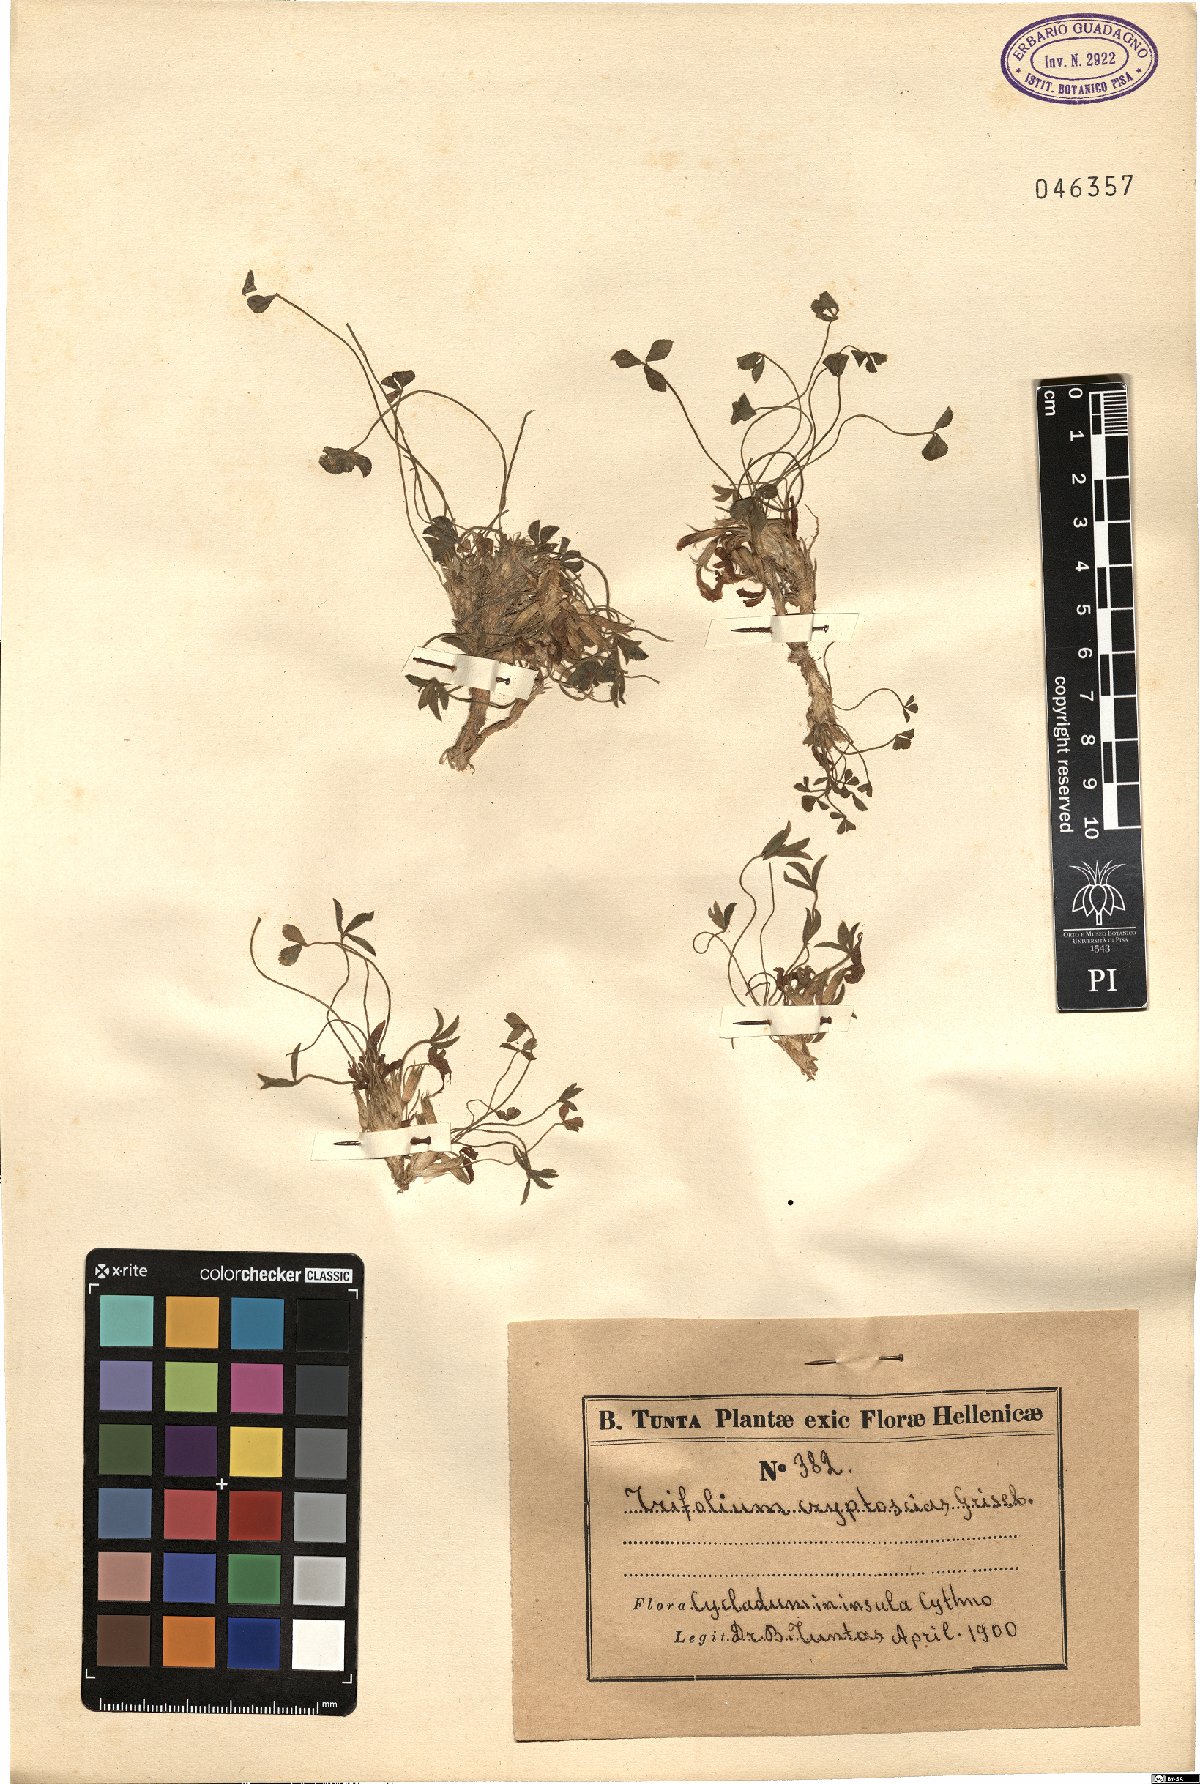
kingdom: Plantae
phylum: Tracheophyta
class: Magnoliopsida
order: Fabales
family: Fabaceae
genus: Trifolium
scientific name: Trifolium uniflorum
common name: One-flower clover
